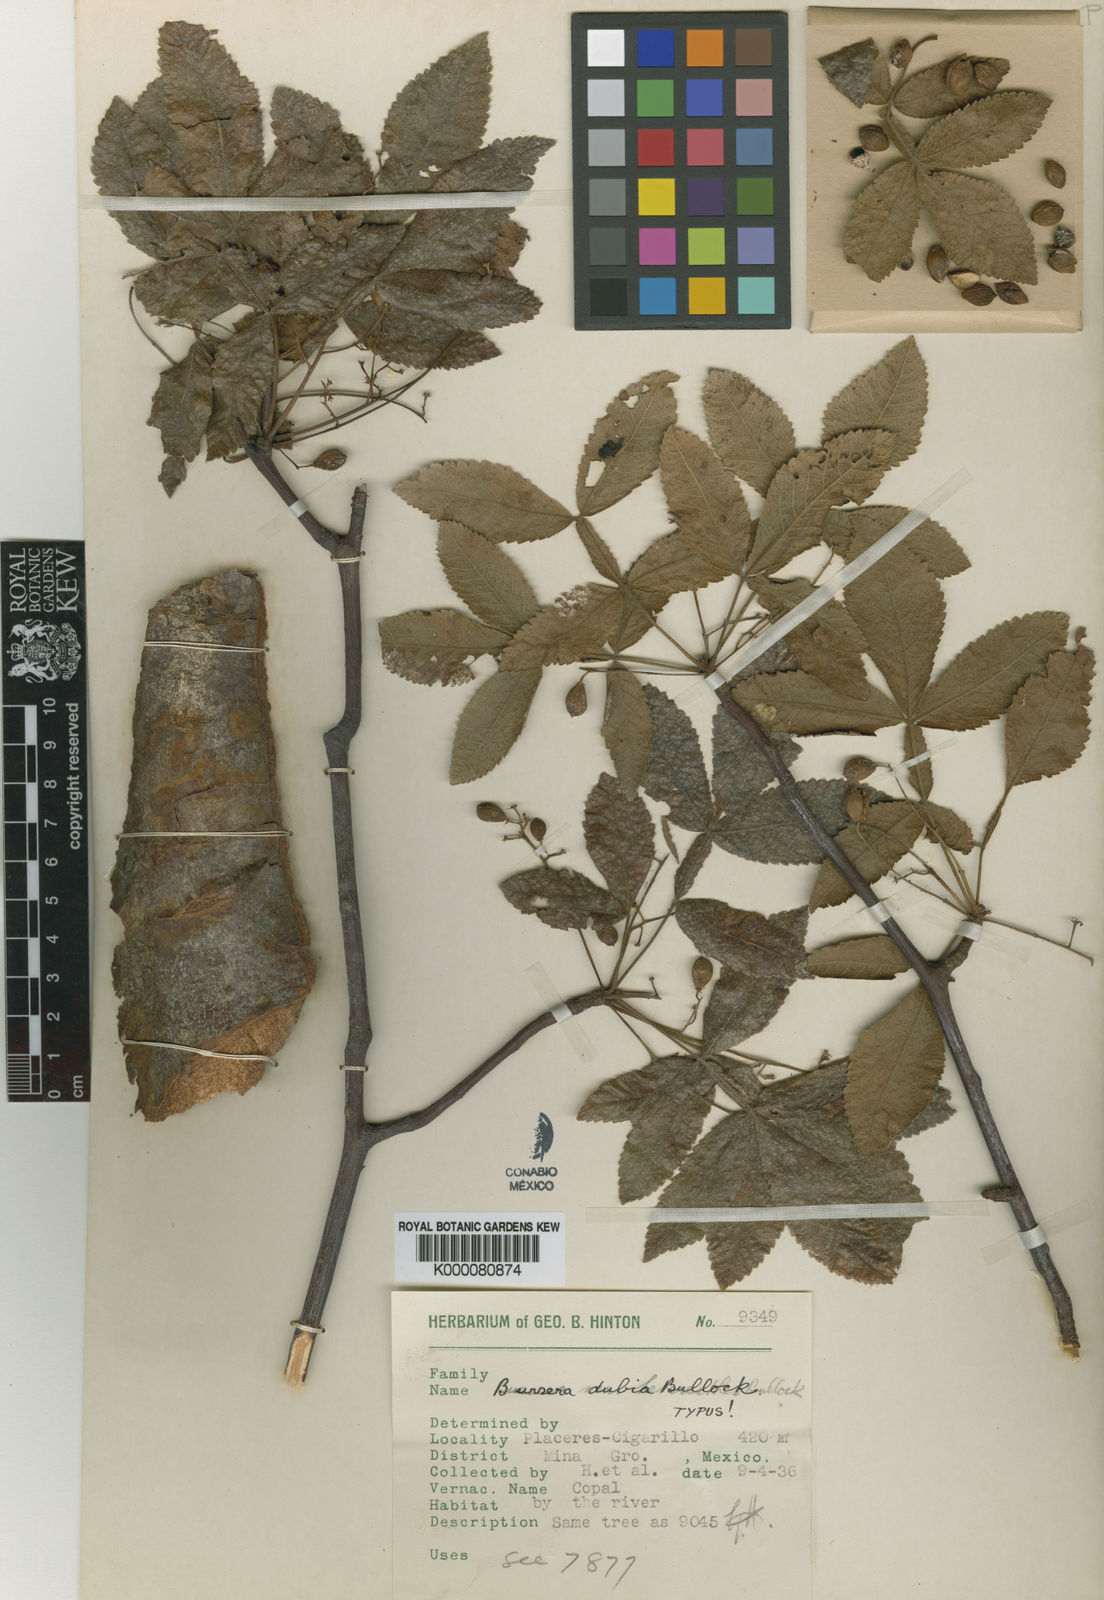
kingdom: Plantae
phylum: Tracheophyta
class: Magnoliopsida
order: Sapindales
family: Burseraceae
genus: Bursera
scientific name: Bursera glabrifolia
